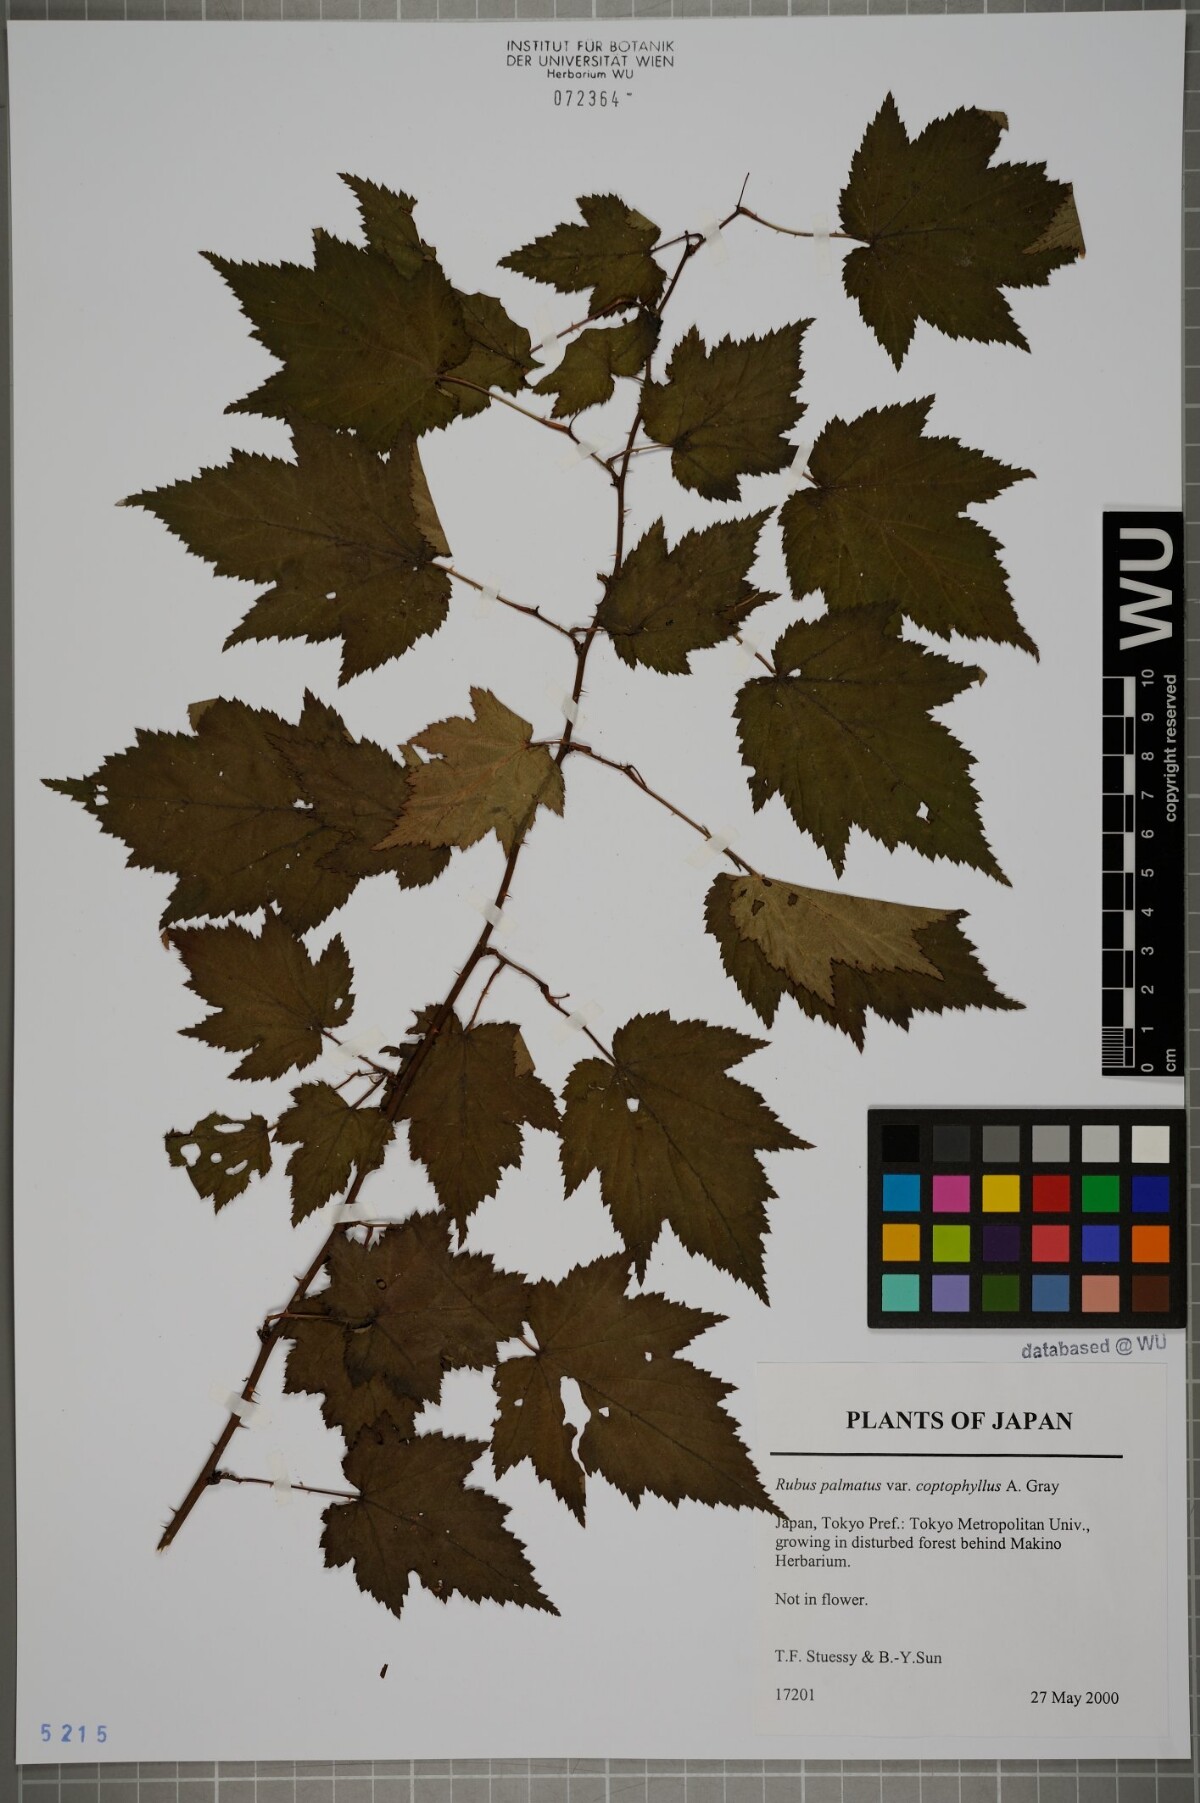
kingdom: Plantae
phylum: Tracheophyta
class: Magnoliopsida
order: Rosales
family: Rosaceae
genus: Rubus
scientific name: Rubus palmatus
